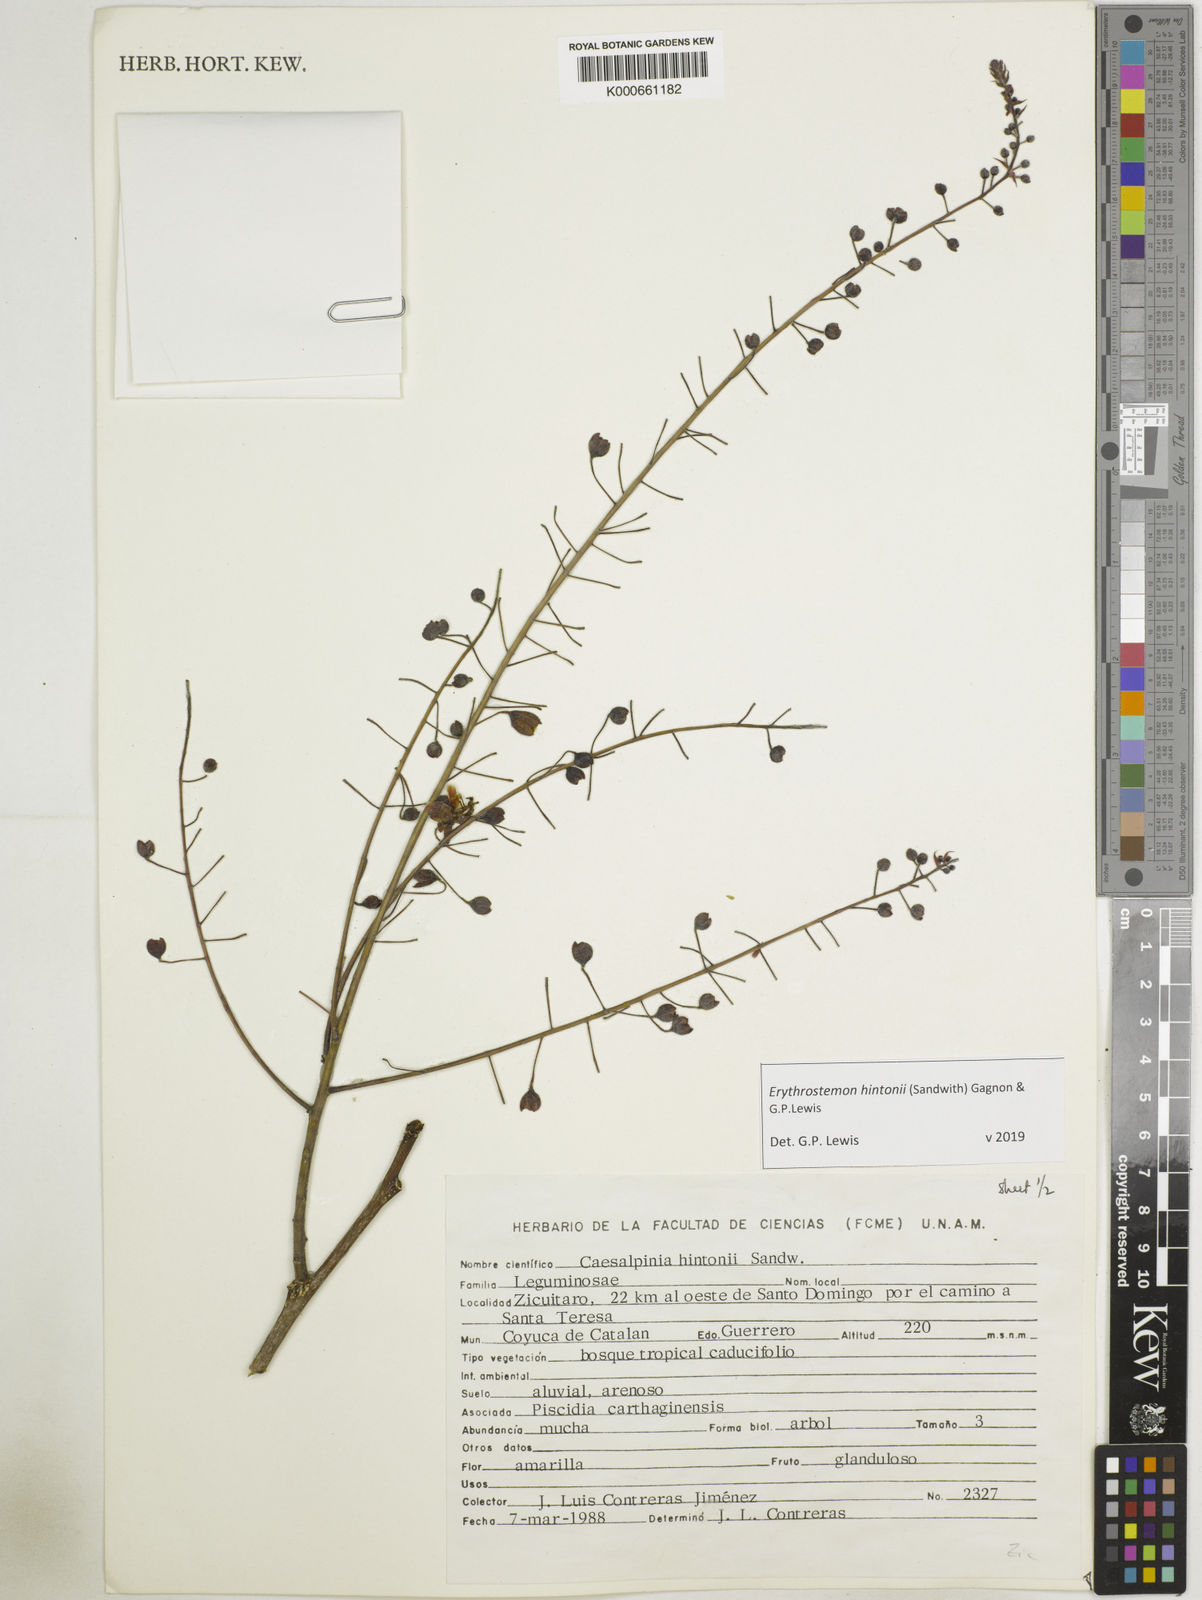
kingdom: Plantae
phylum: Tracheophyta
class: Magnoliopsida
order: Fabales
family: Fabaceae
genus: Erythrostemon
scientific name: Erythrostemon hintonii
